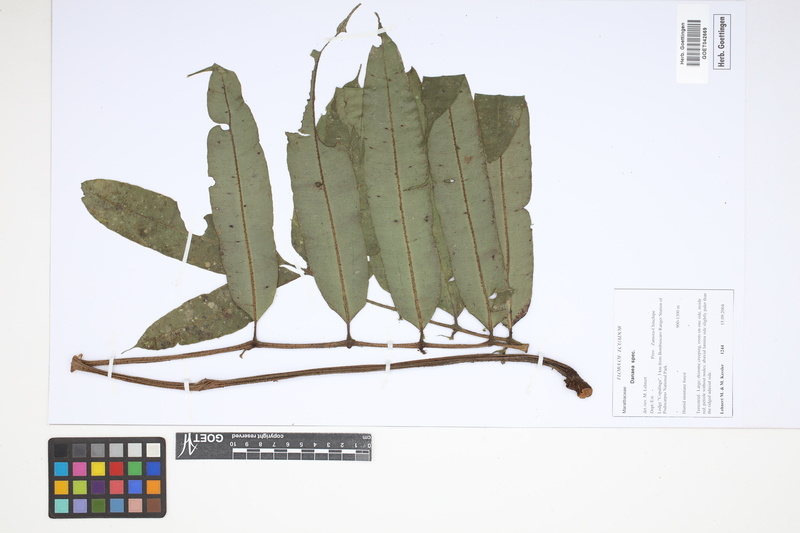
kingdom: Plantae
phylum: Tracheophyta
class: Polypodiopsida
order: Marattiales
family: Marattiaceae
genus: Danaea
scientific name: Danaea
